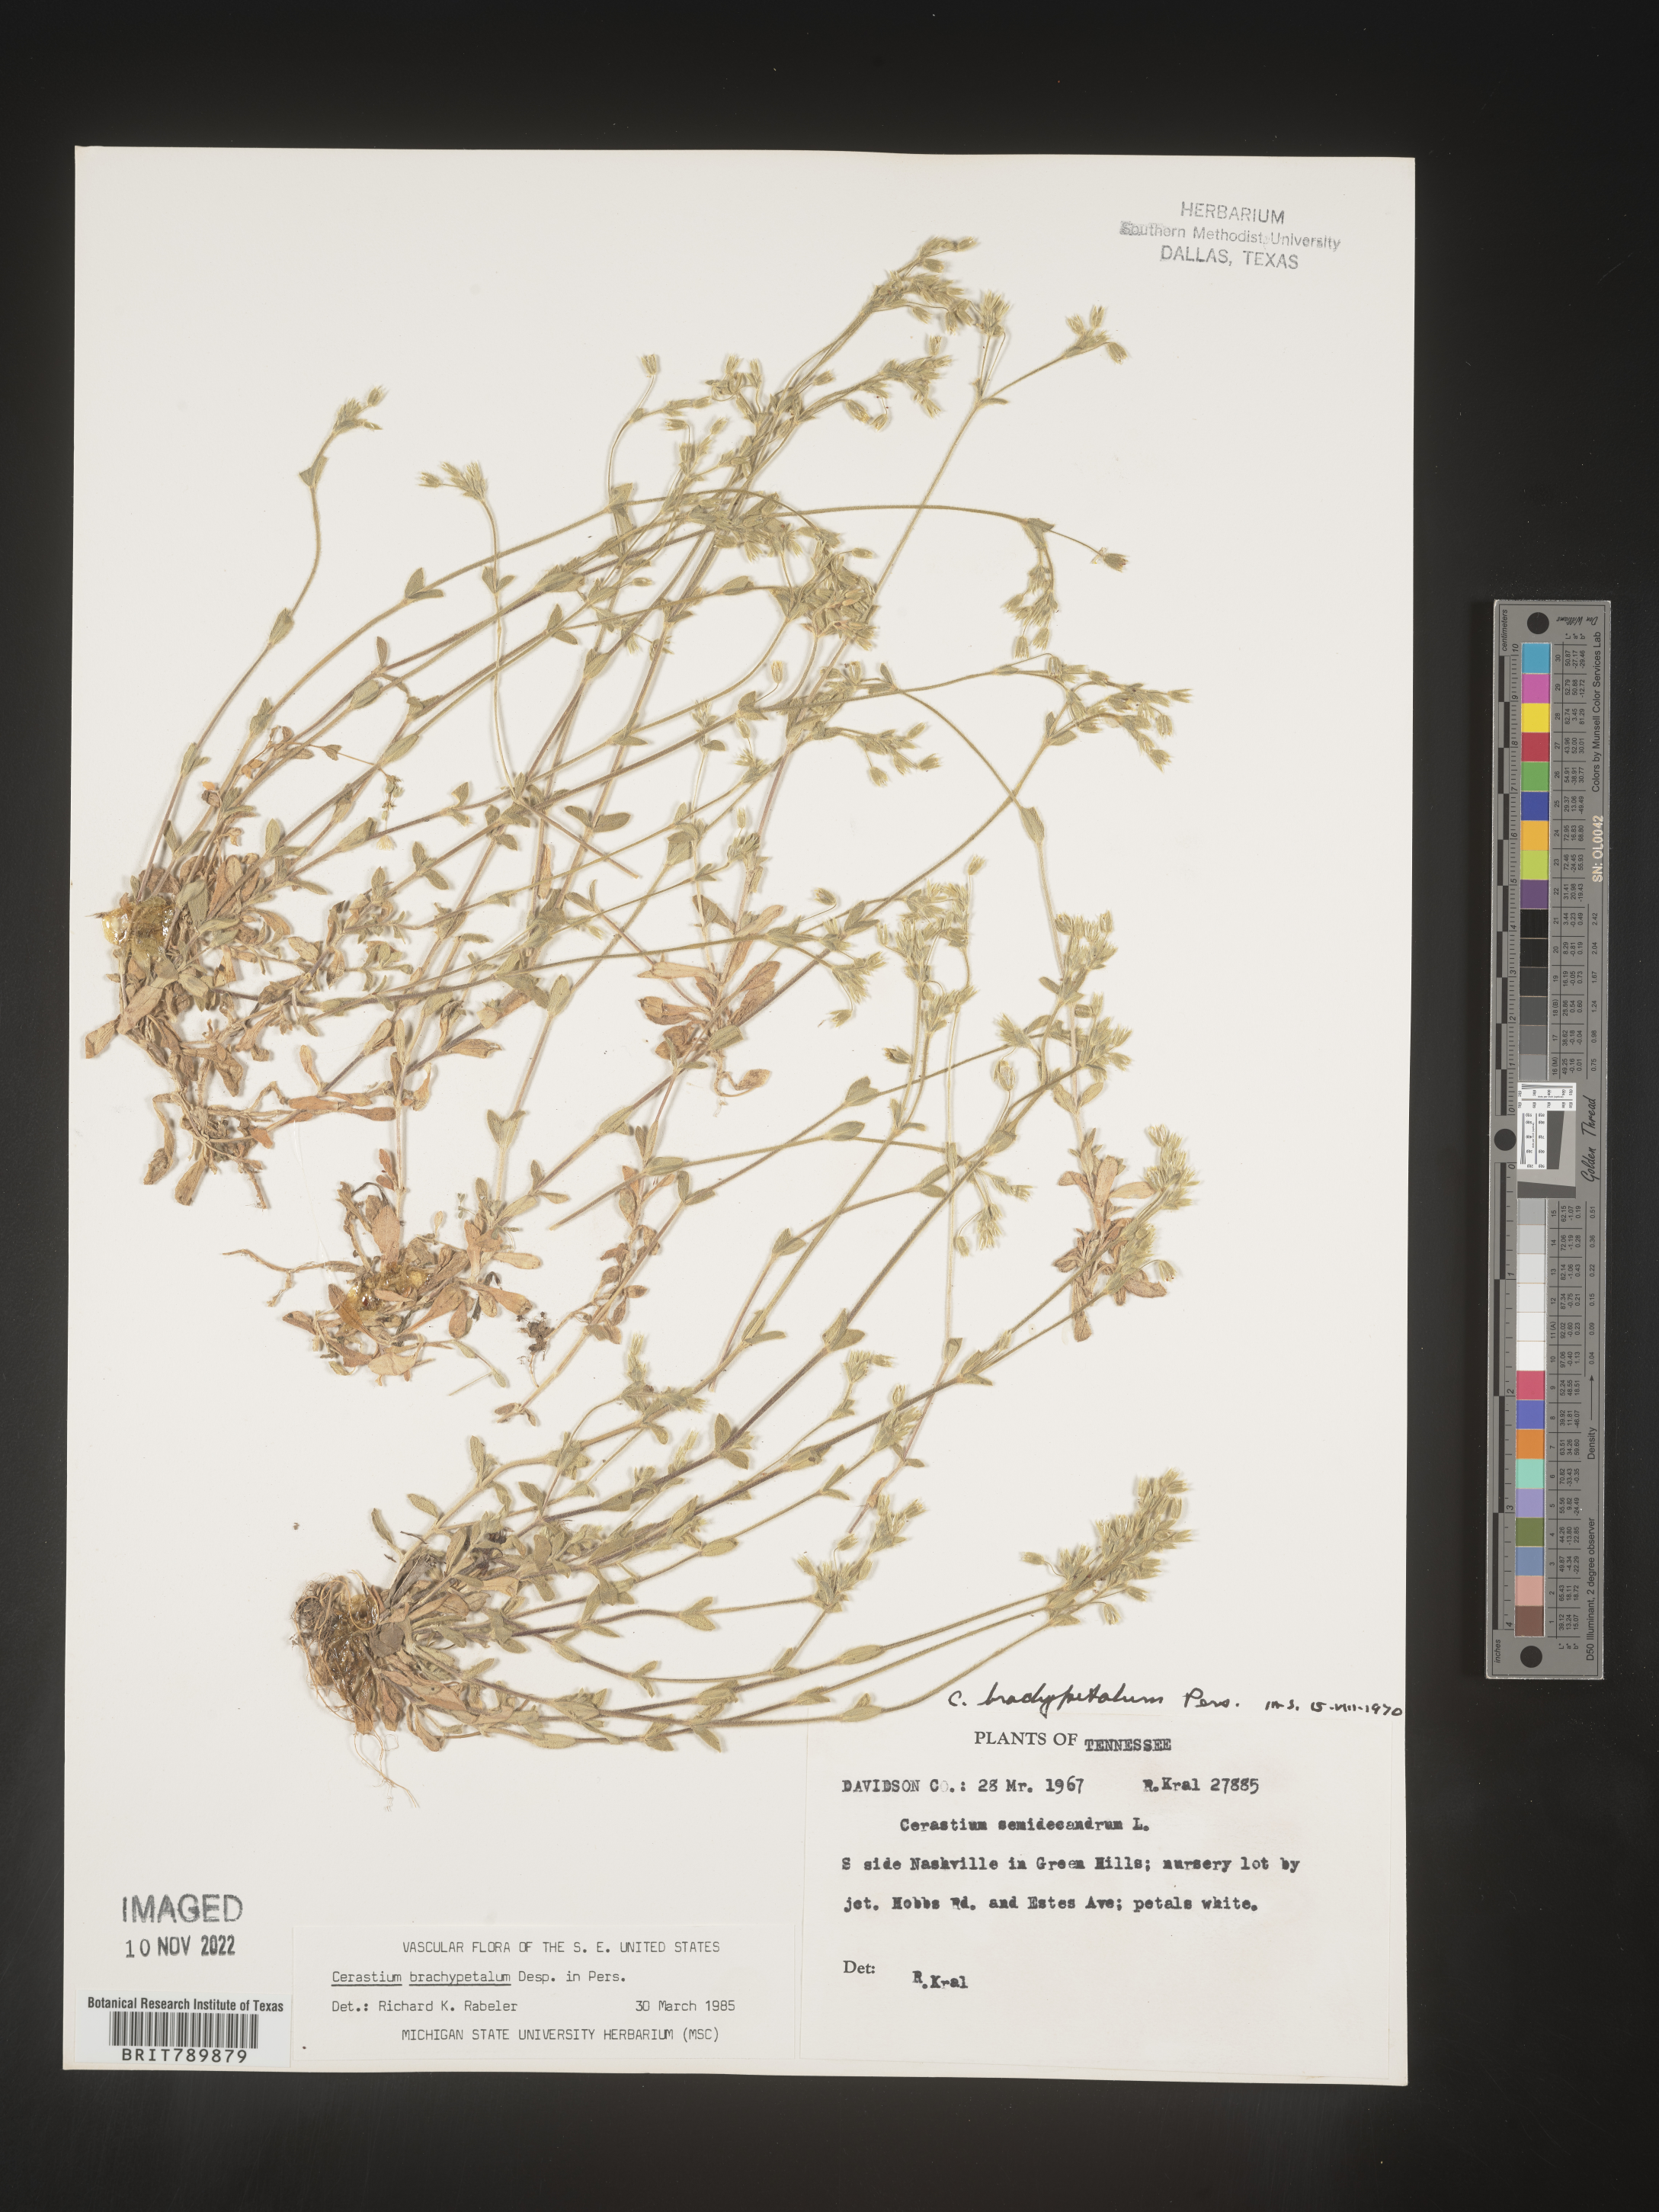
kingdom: Plantae
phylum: Tracheophyta
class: Magnoliopsida
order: Caryophyllales
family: Caryophyllaceae
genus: Cerastium
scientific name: Cerastium brachypetalum
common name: Grey mouse-ear
